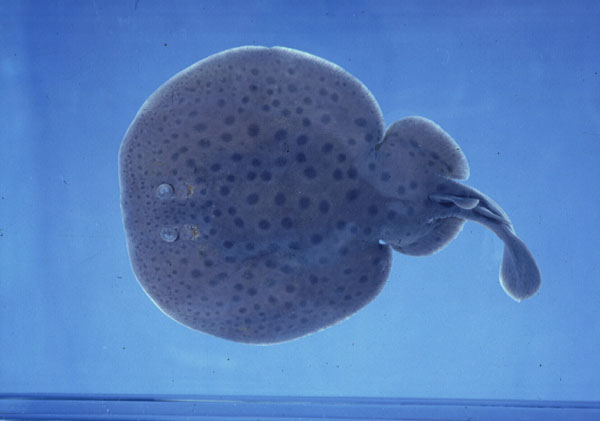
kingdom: Animalia
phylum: Chordata
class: Elasmobranchii
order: Torpediniformes
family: Torpedinidae
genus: Torpedo
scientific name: Torpedo fuscomaculata
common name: Blackspotted electric ray
